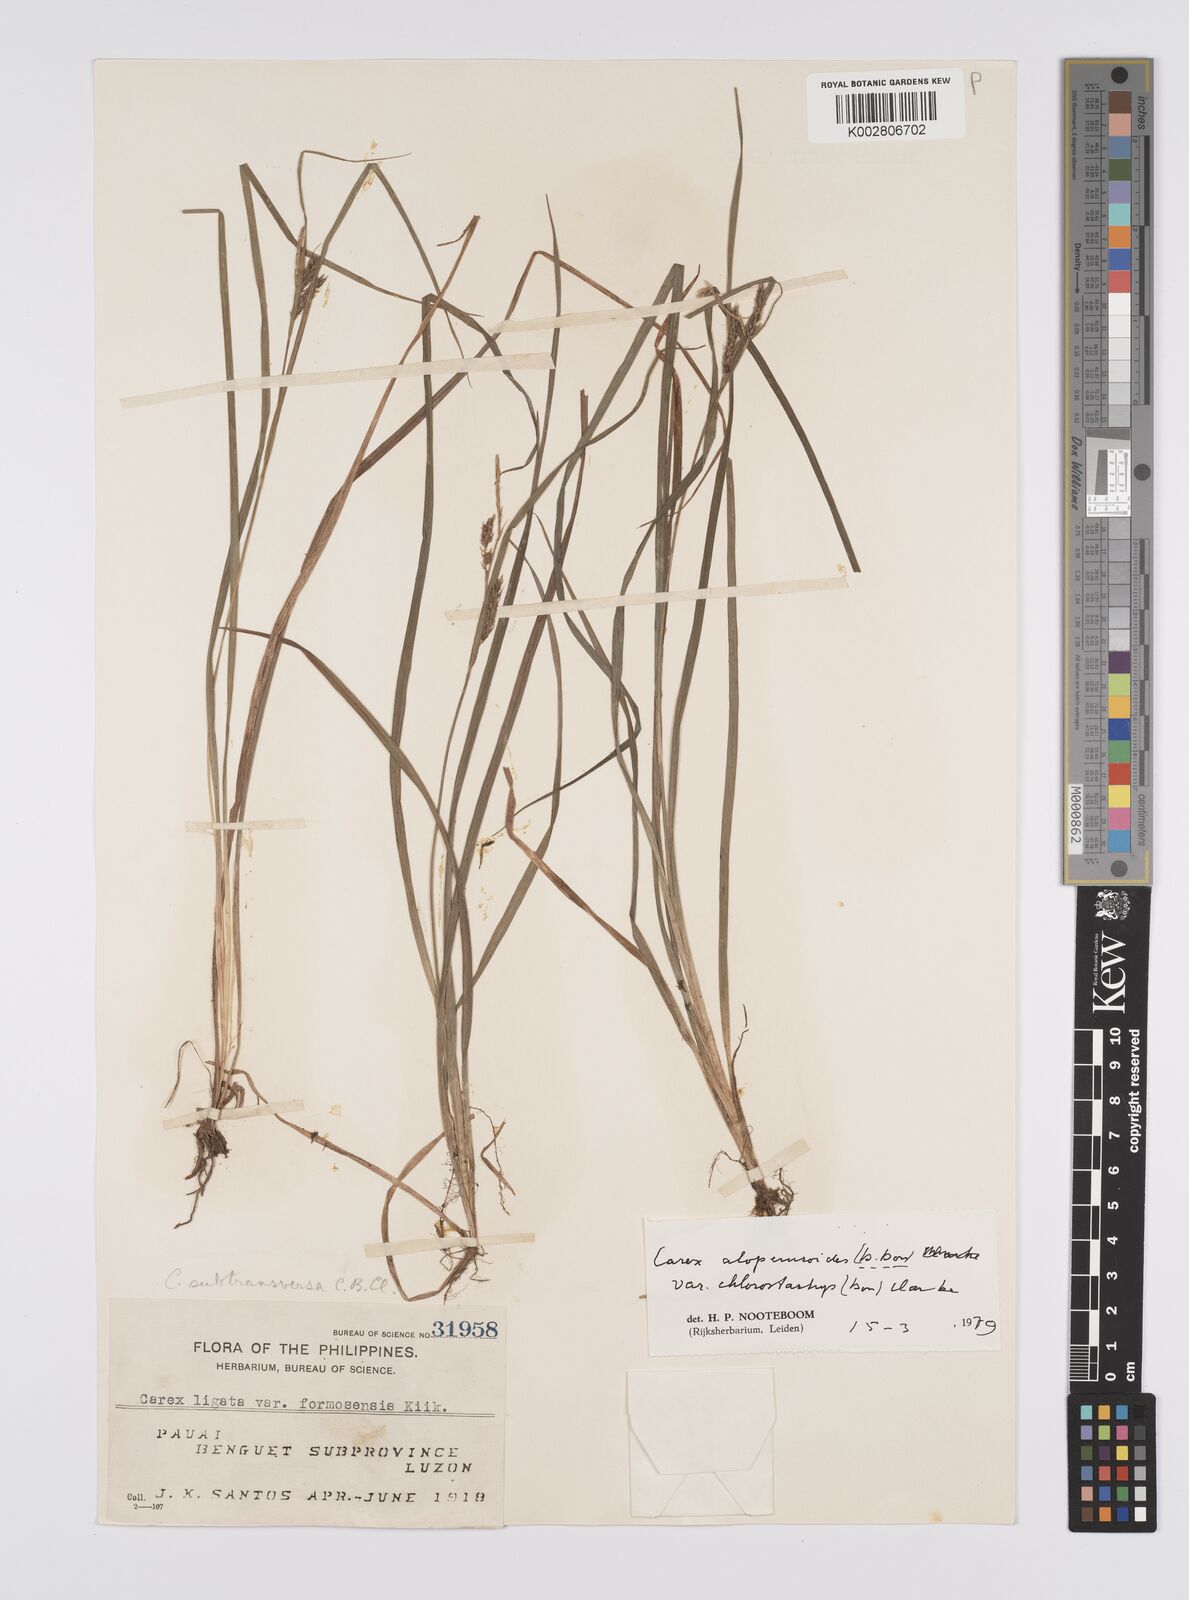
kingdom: Plantae
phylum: Tracheophyta
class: Liliopsida
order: Poales
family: Cyperaceae
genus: Carex
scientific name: Carex alopecuroides
